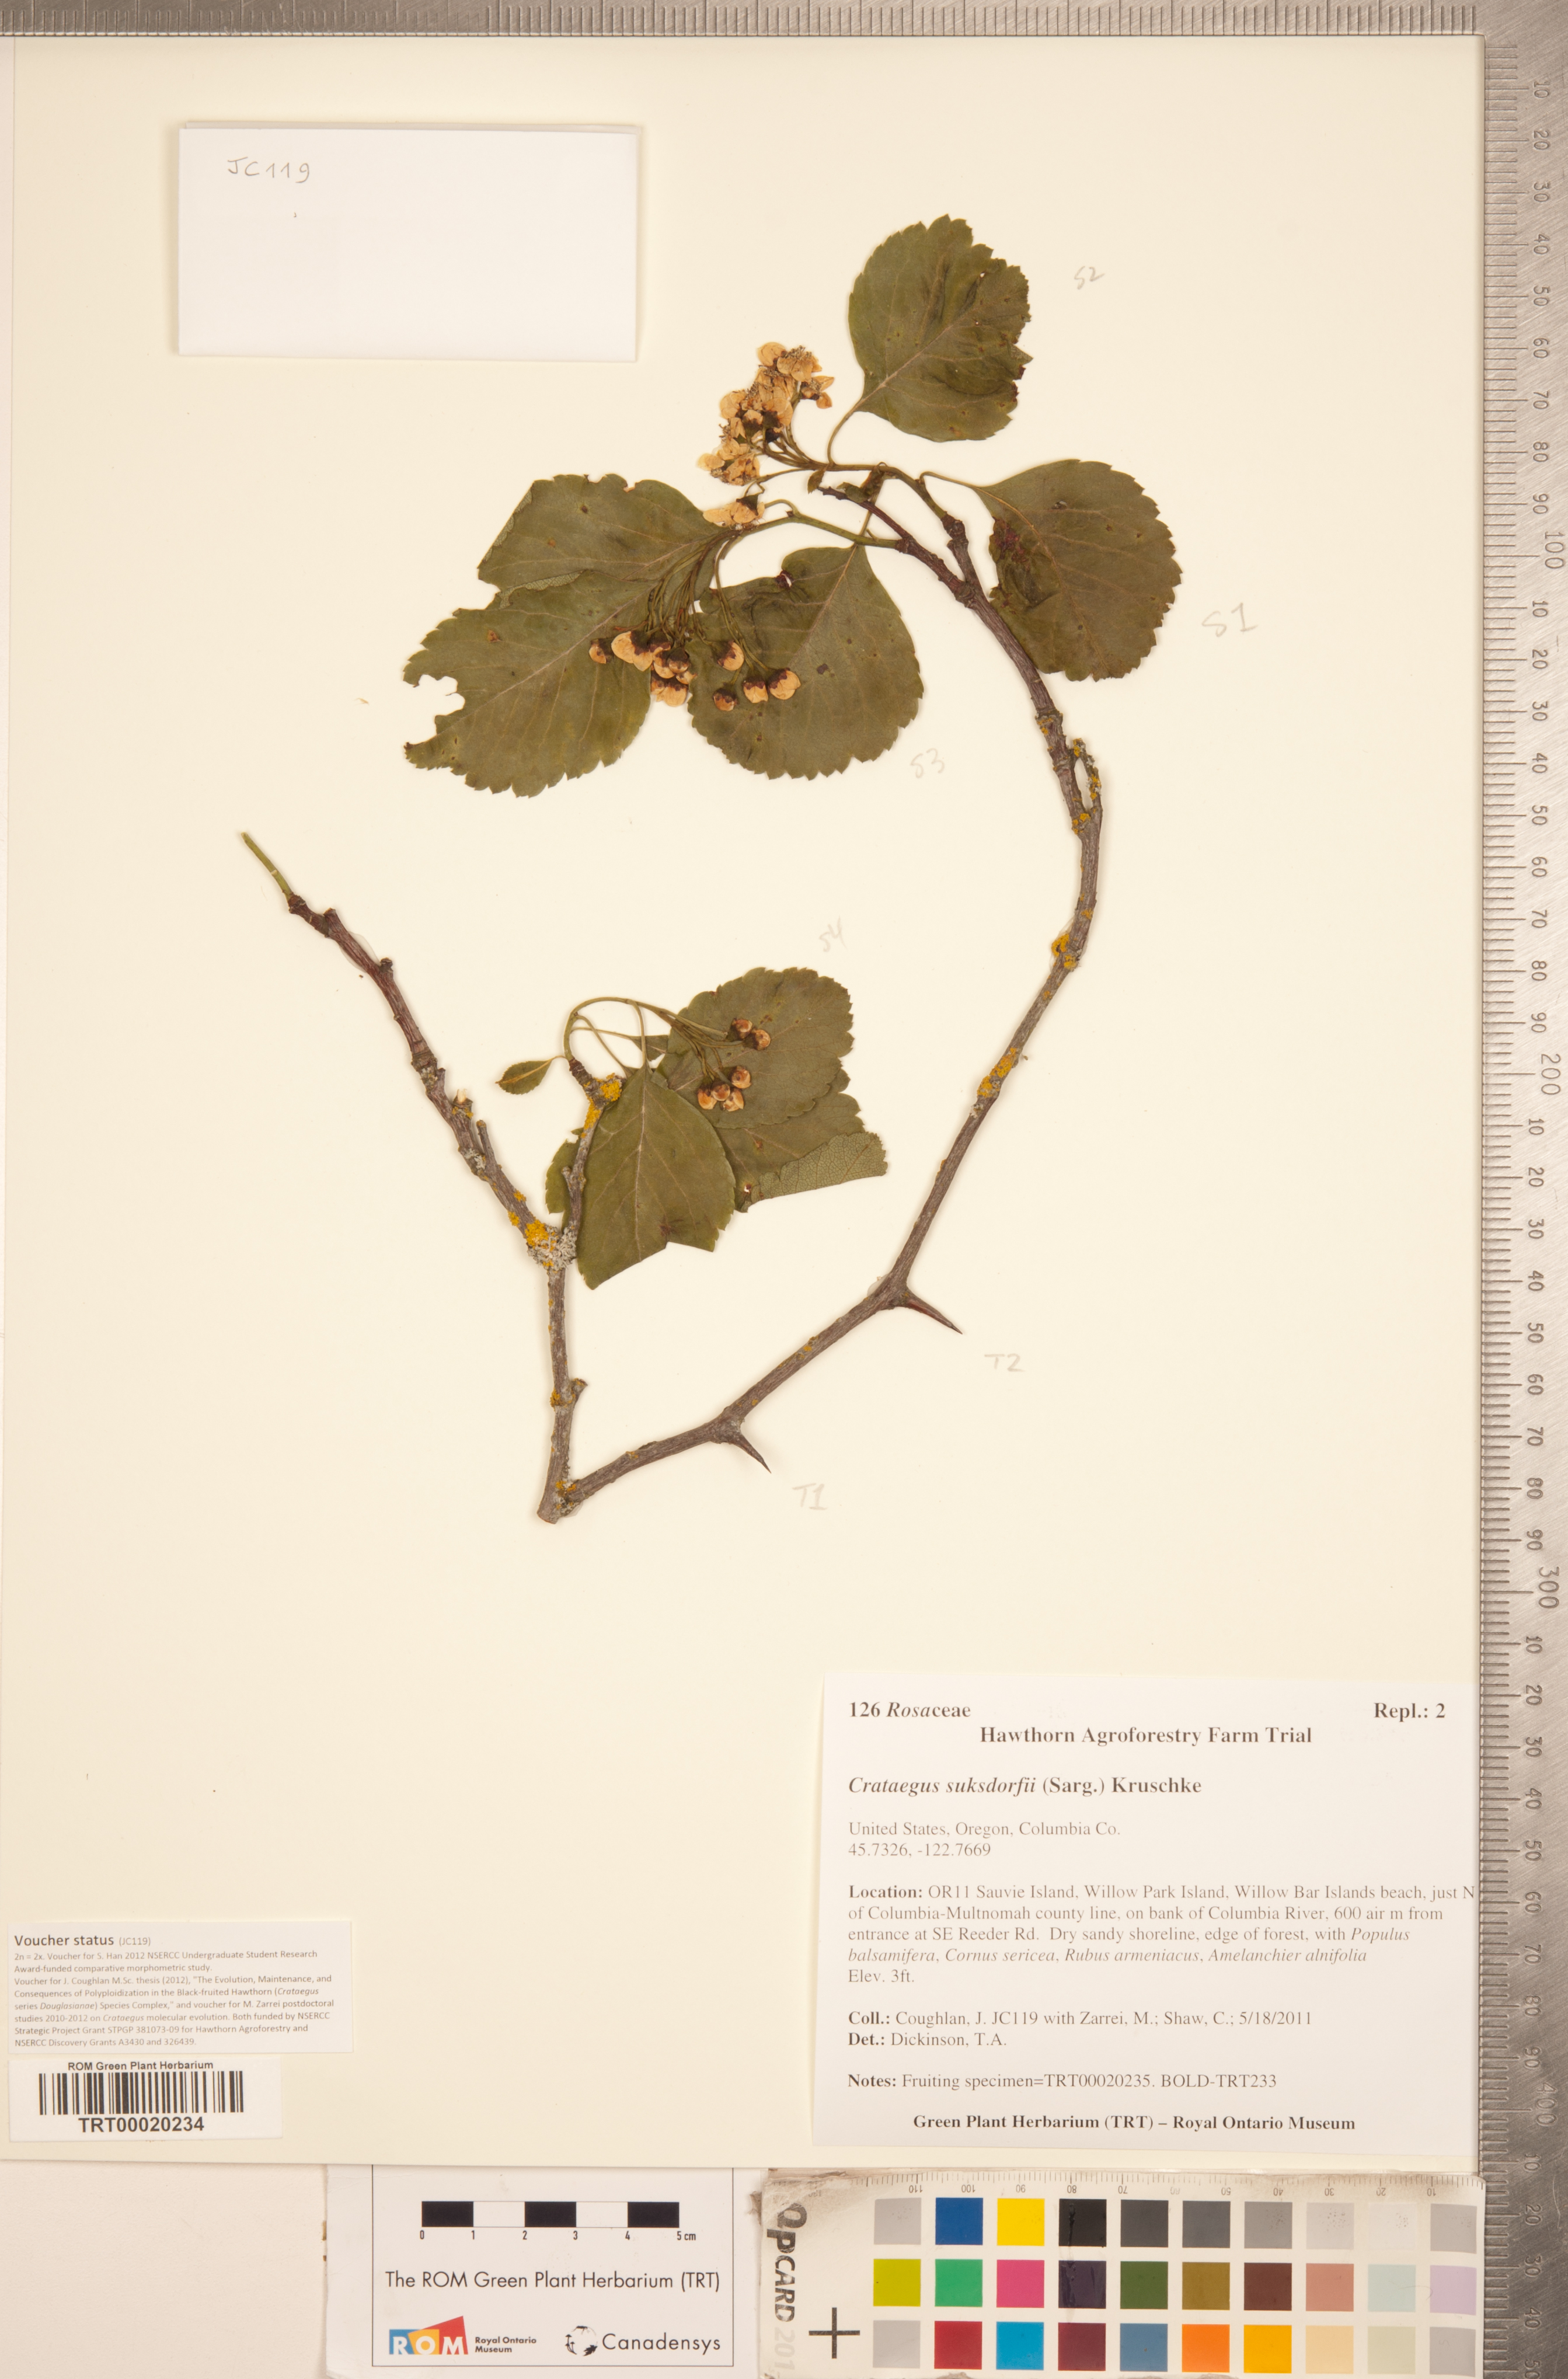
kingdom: Plantae
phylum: Tracheophyta
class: Magnoliopsida
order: Rosales
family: Rosaceae
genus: Crataegus
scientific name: Crataegus gaylussacia
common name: Huckleberry hawthorn
